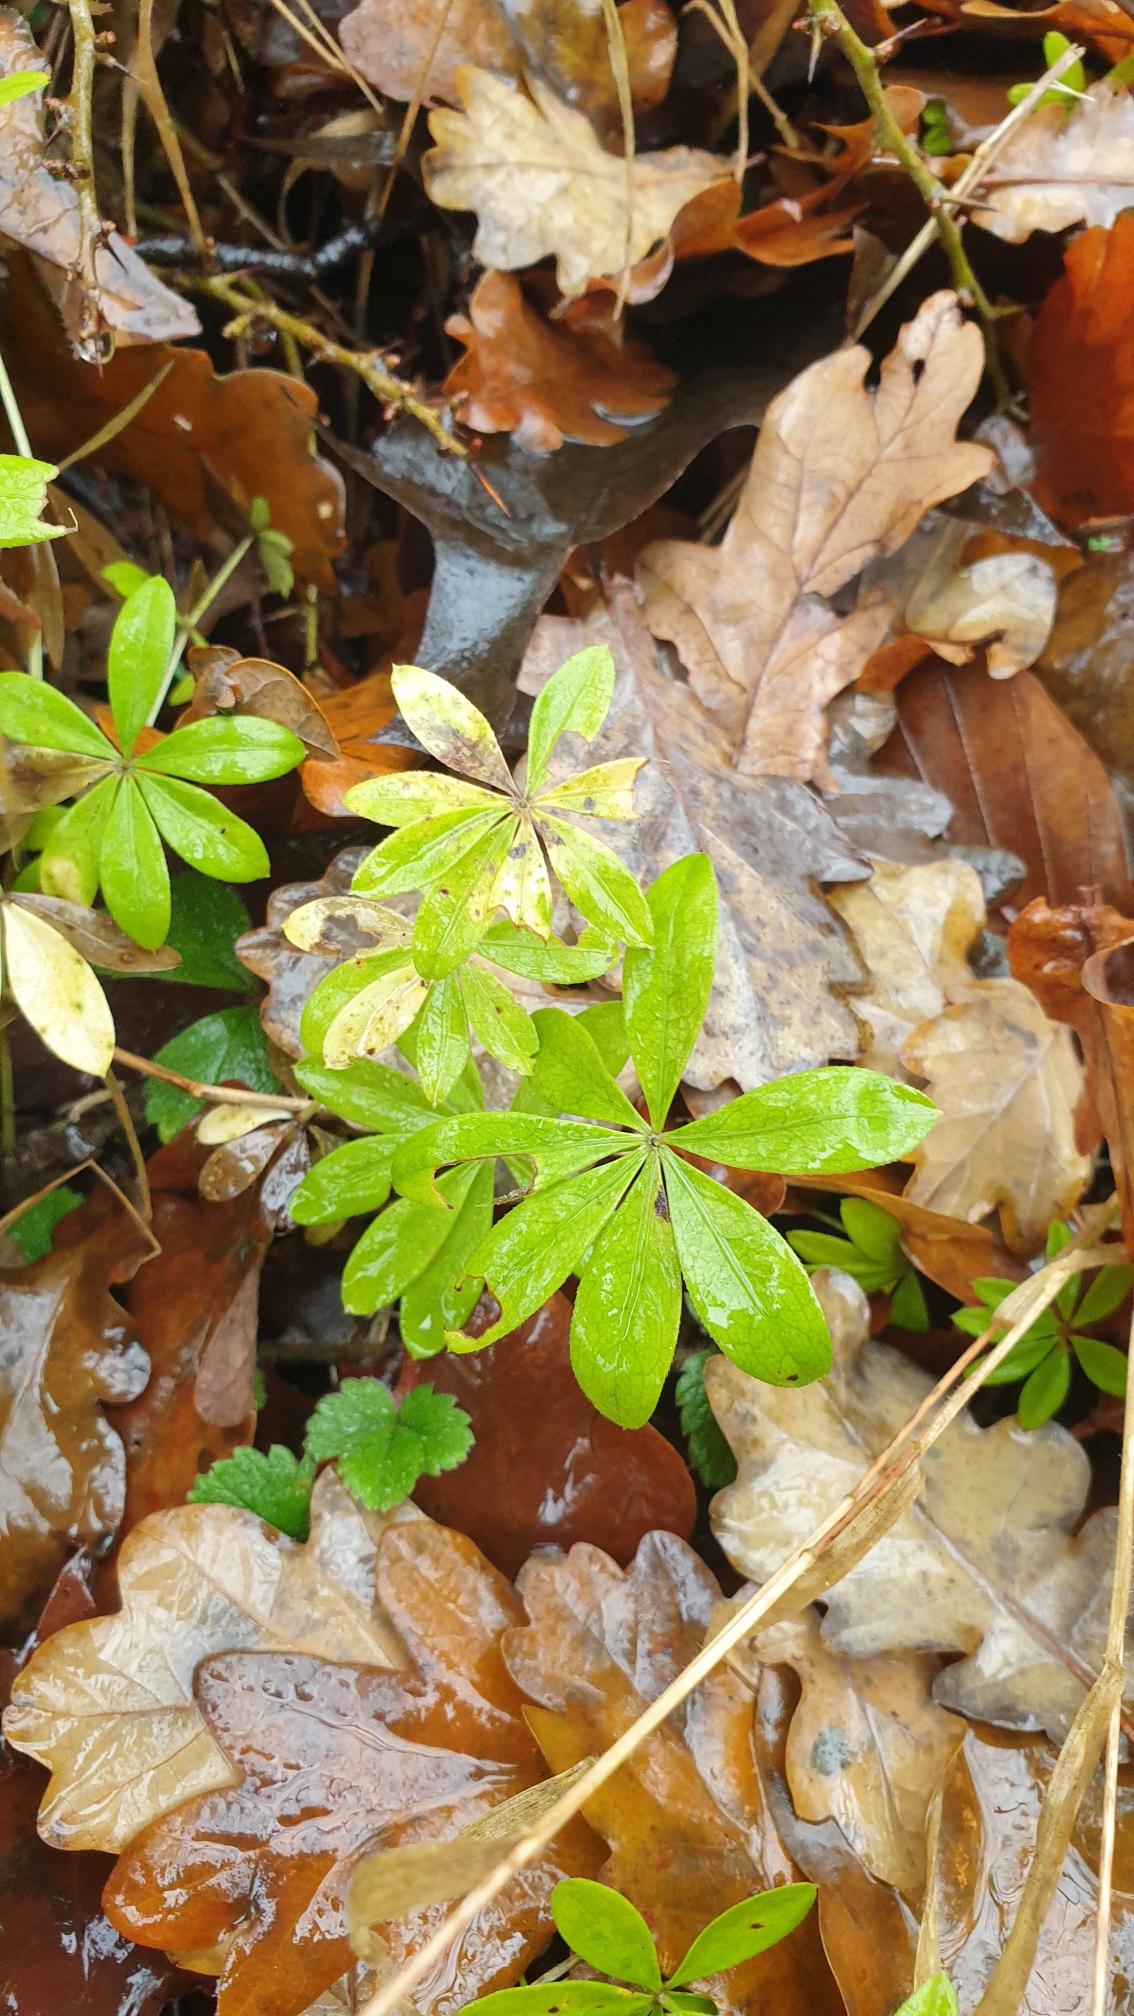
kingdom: Plantae
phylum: Tracheophyta
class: Magnoliopsida
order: Gentianales
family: Rubiaceae
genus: Galium
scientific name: Galium odoratum
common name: Skovmærke
